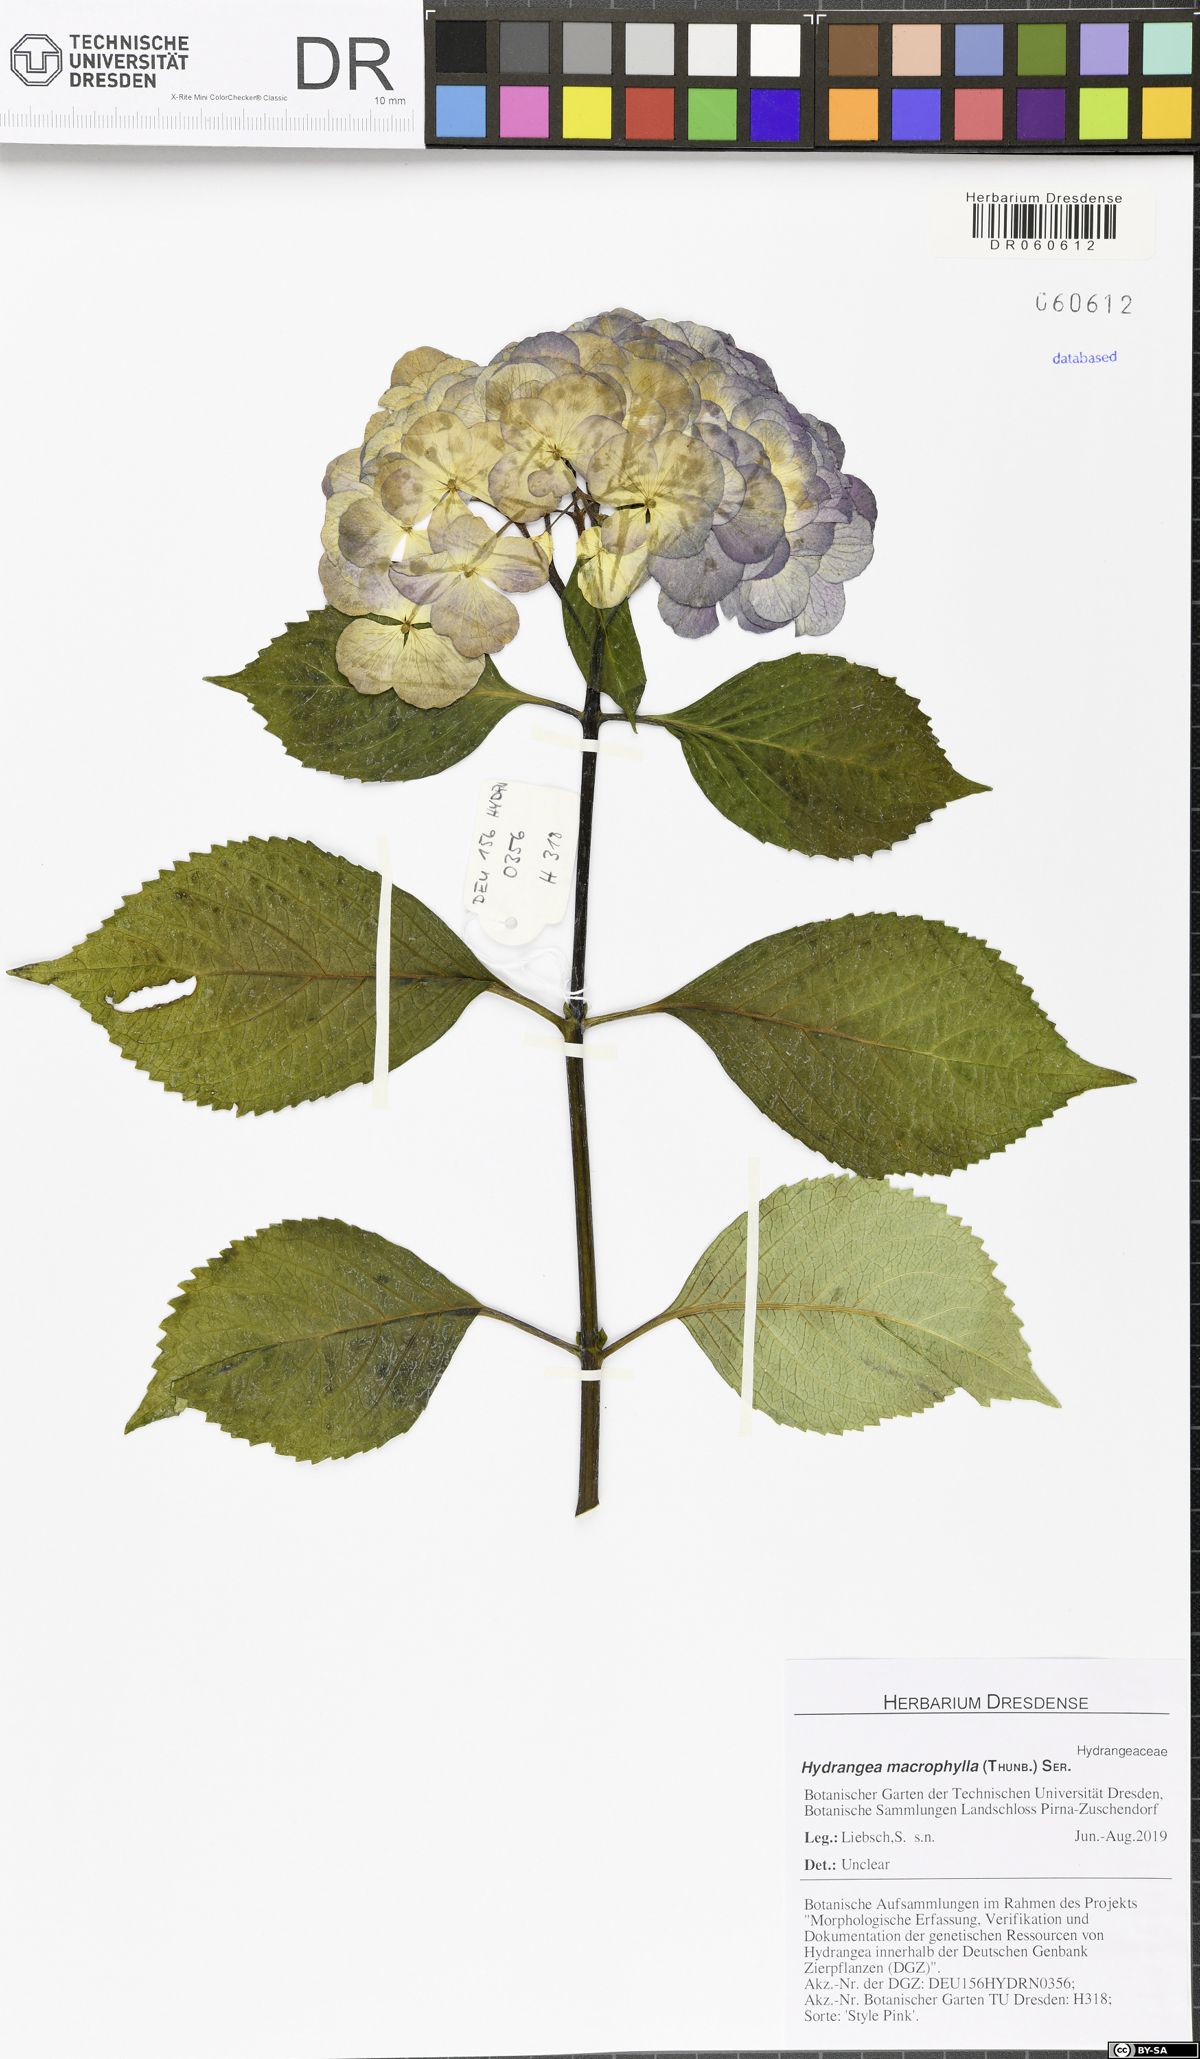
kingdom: Plantae
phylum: Tracheophyta
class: Magnoliopsida
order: Cornales
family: Hydrangeaceae
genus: Hydrangea
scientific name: Hydrangea macrophylla
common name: Hydrangea
